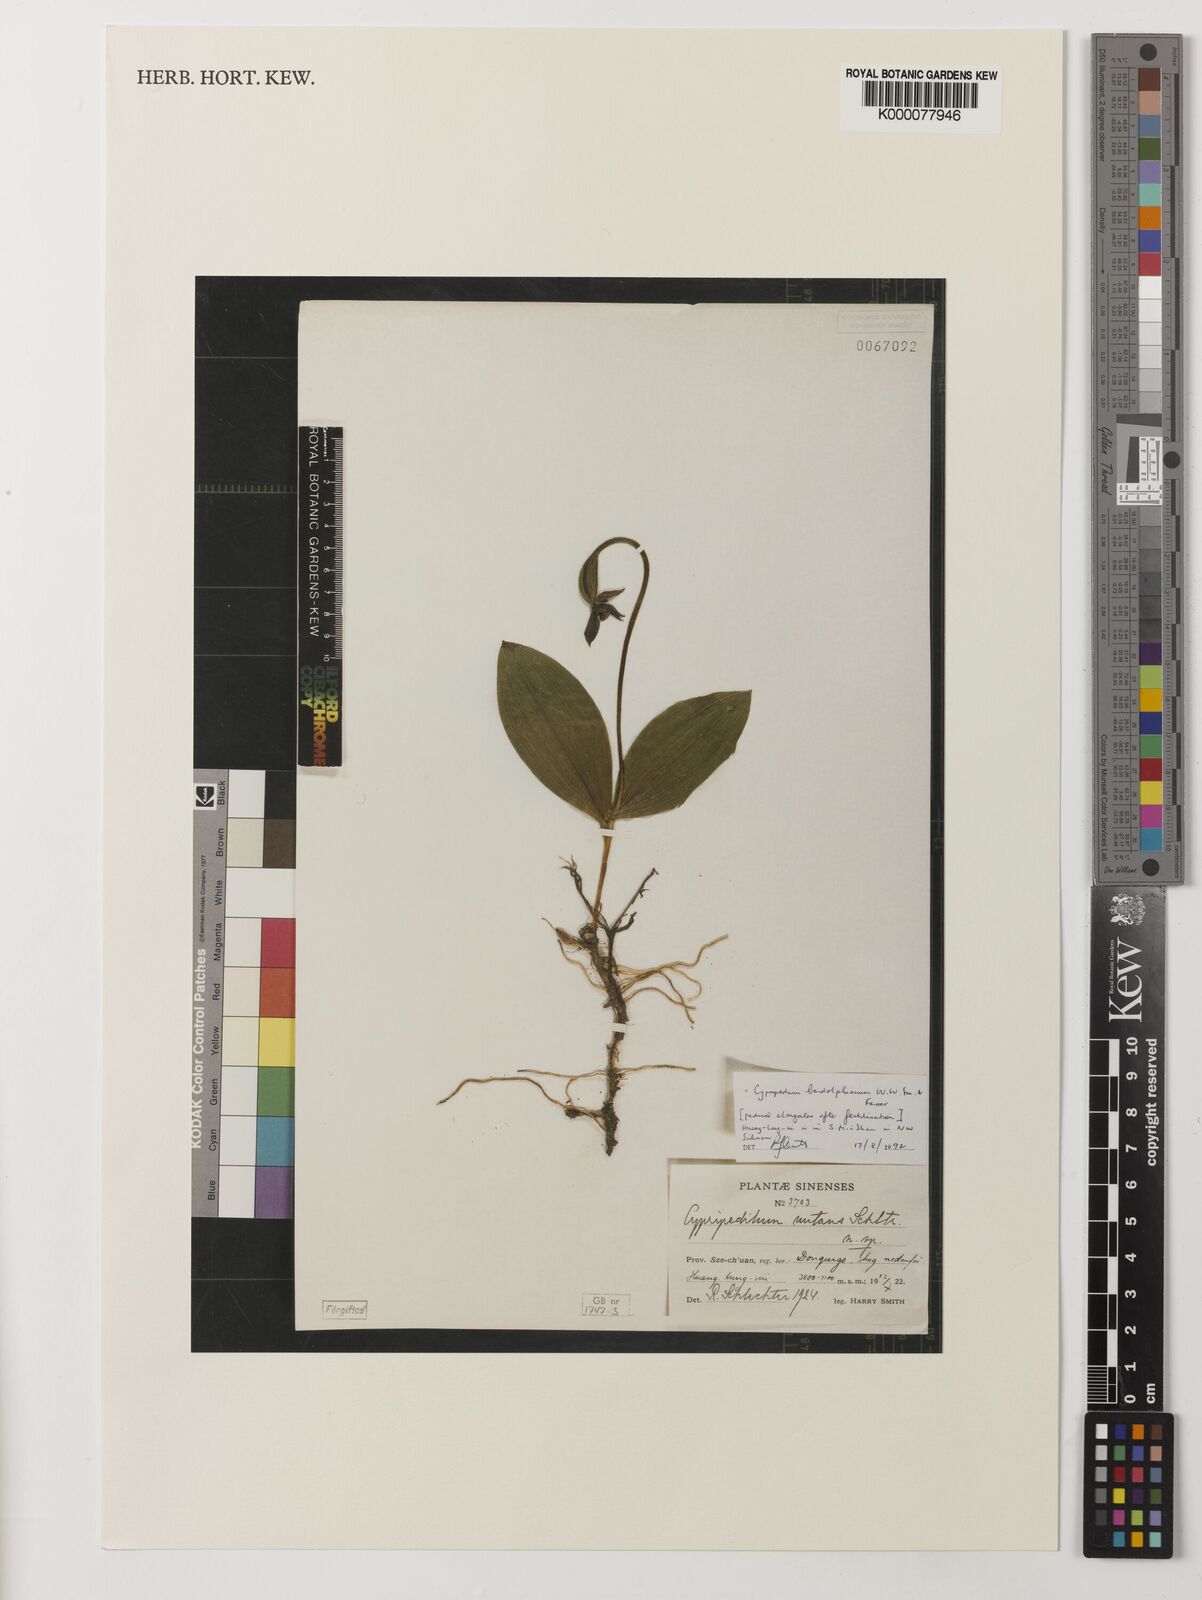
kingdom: Plantae
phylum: Tracheophyta
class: Liliopsida
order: Asparagales
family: Orchidaceae
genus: Cypripedium
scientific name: Cypripedium bardolphianum
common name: Bardolph's cypripedium
